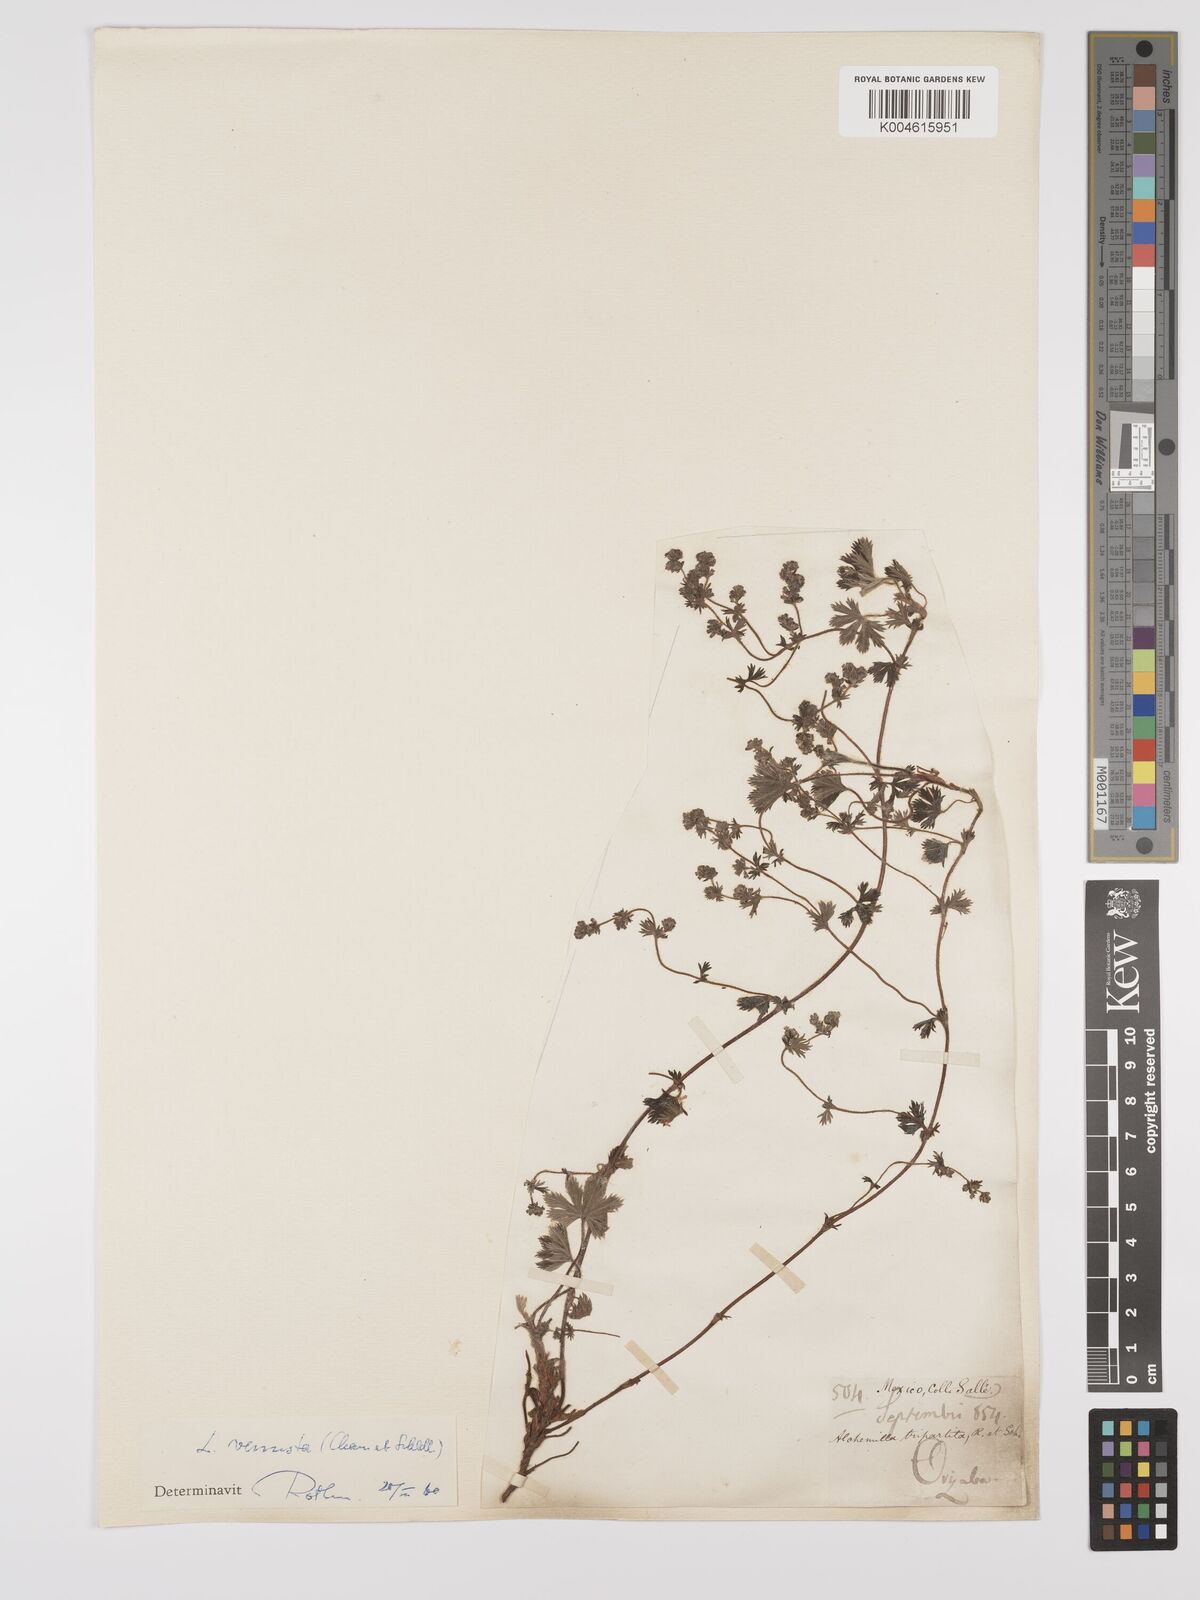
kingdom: Plantae
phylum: Tracheophyta
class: Magnoliopsida
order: Rosales
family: Rosaceae
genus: Lachemilla
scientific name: Lachemilla venusta
